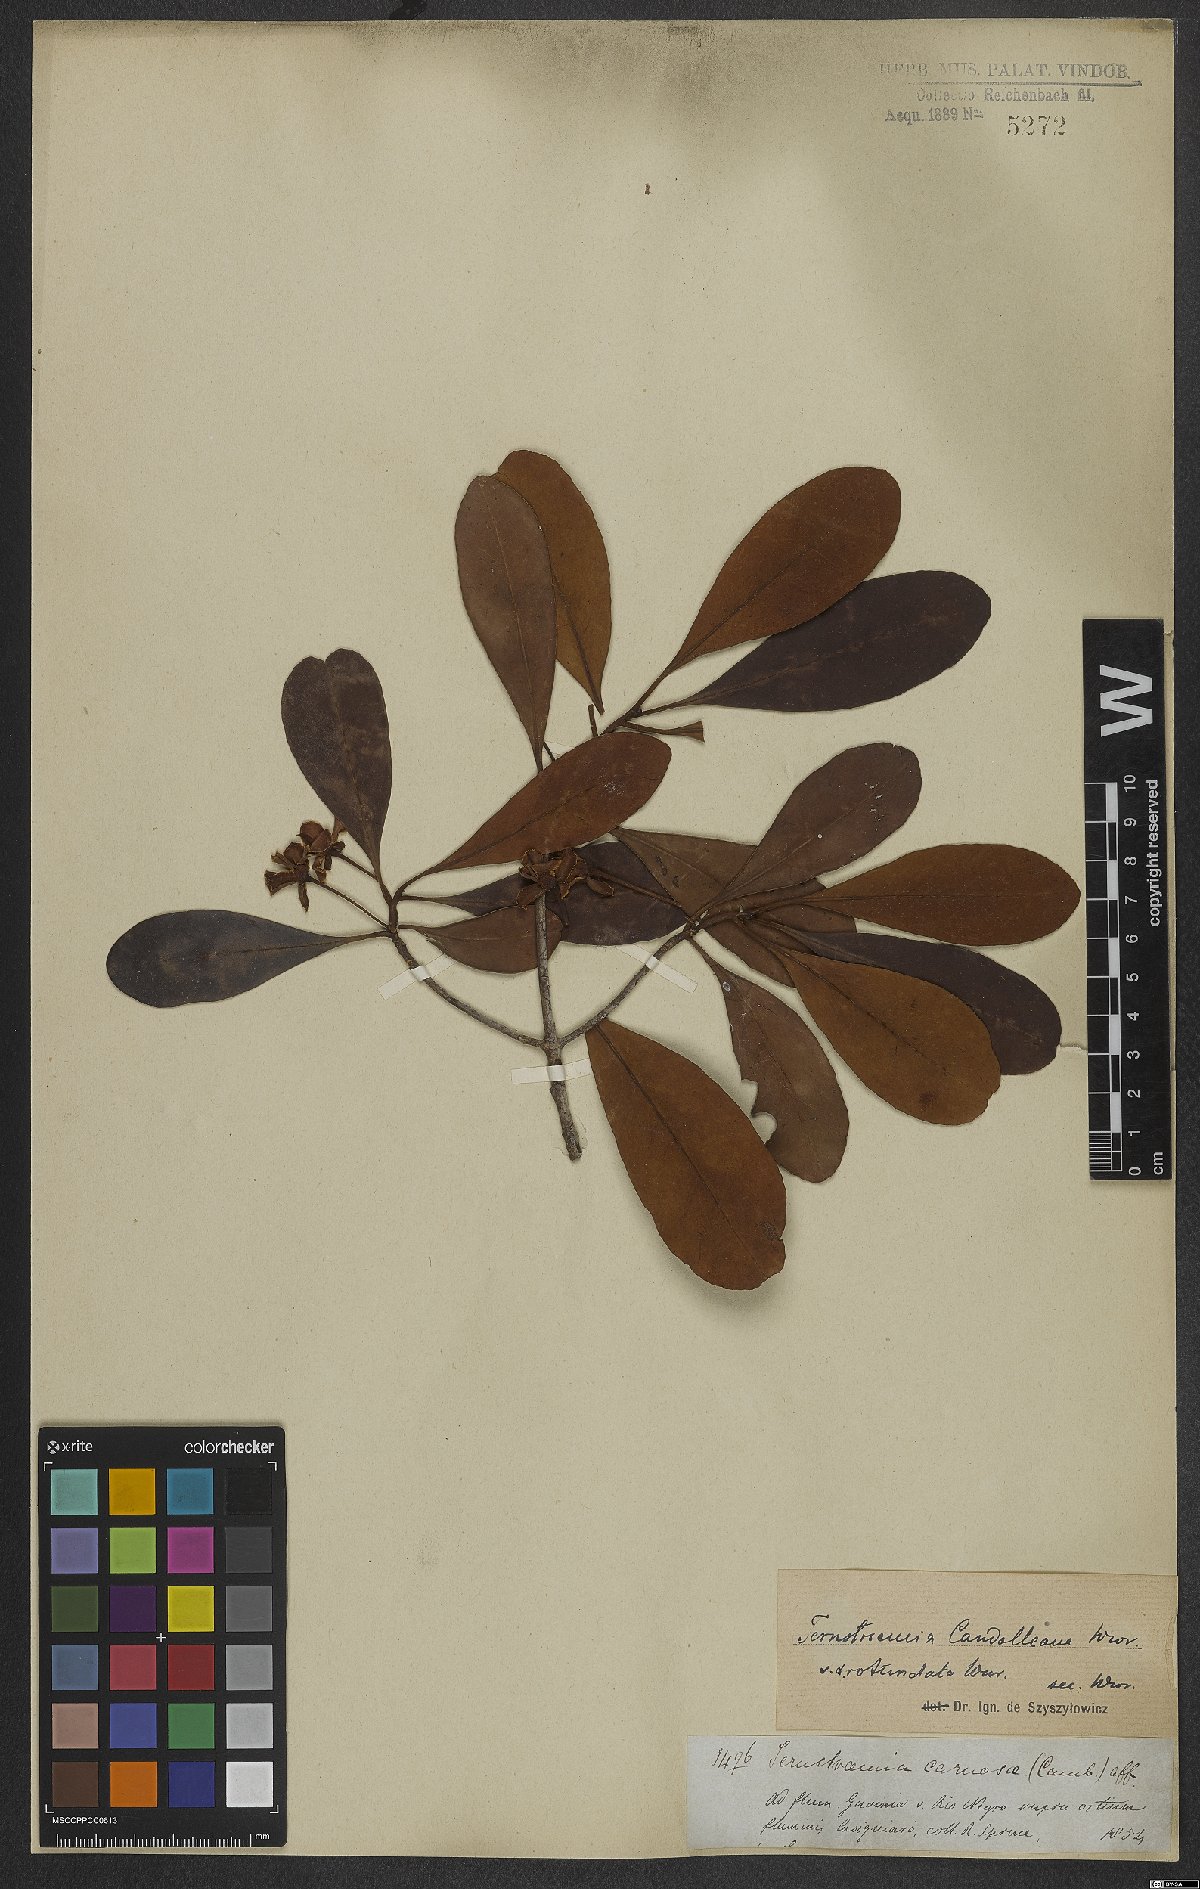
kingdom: Plantae
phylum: Tracheophyta
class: Magnoliopsida
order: Ericales
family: Pentaphylacaceae
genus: Ternstroemia
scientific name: Ternstroemia candolleana
